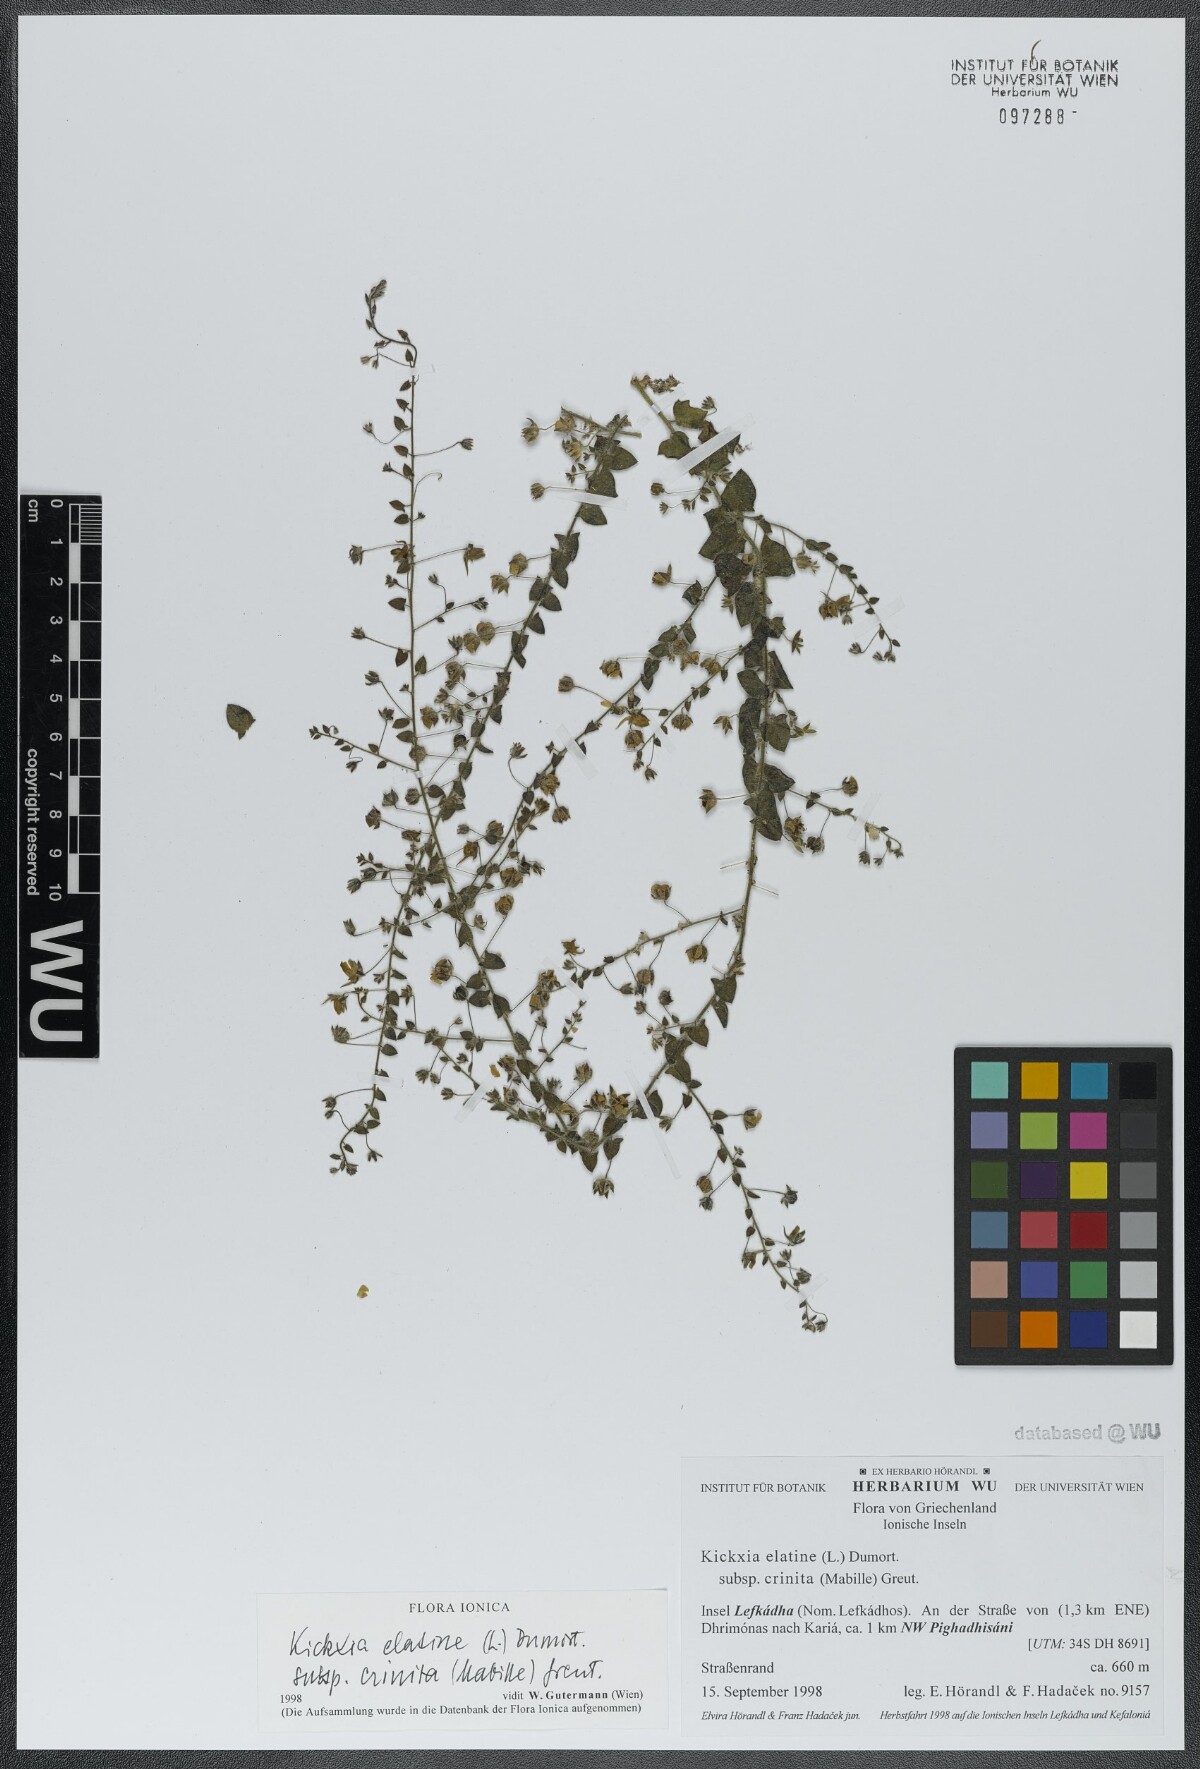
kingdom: Plantae
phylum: Tracheophyta
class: Magnoliopsida
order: Lamiales
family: Plantaginaceae
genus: Kickxia
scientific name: Kickxia elatine
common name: Sharp-leaved fluellen
